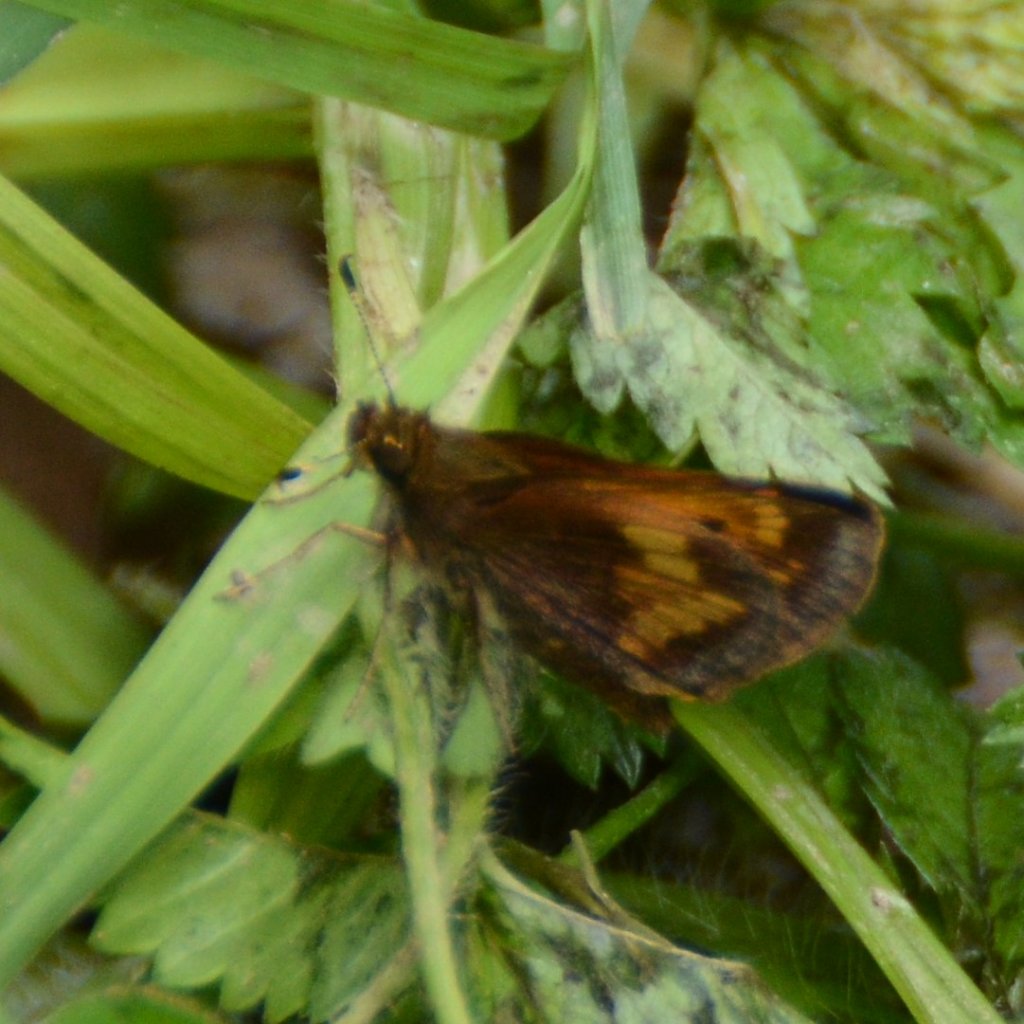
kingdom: Animalia
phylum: Arthropoda
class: Insecta
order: Lepidoptera
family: Hesperiidae
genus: Lon
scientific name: Lon hobomok
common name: Hobomok Skipper
